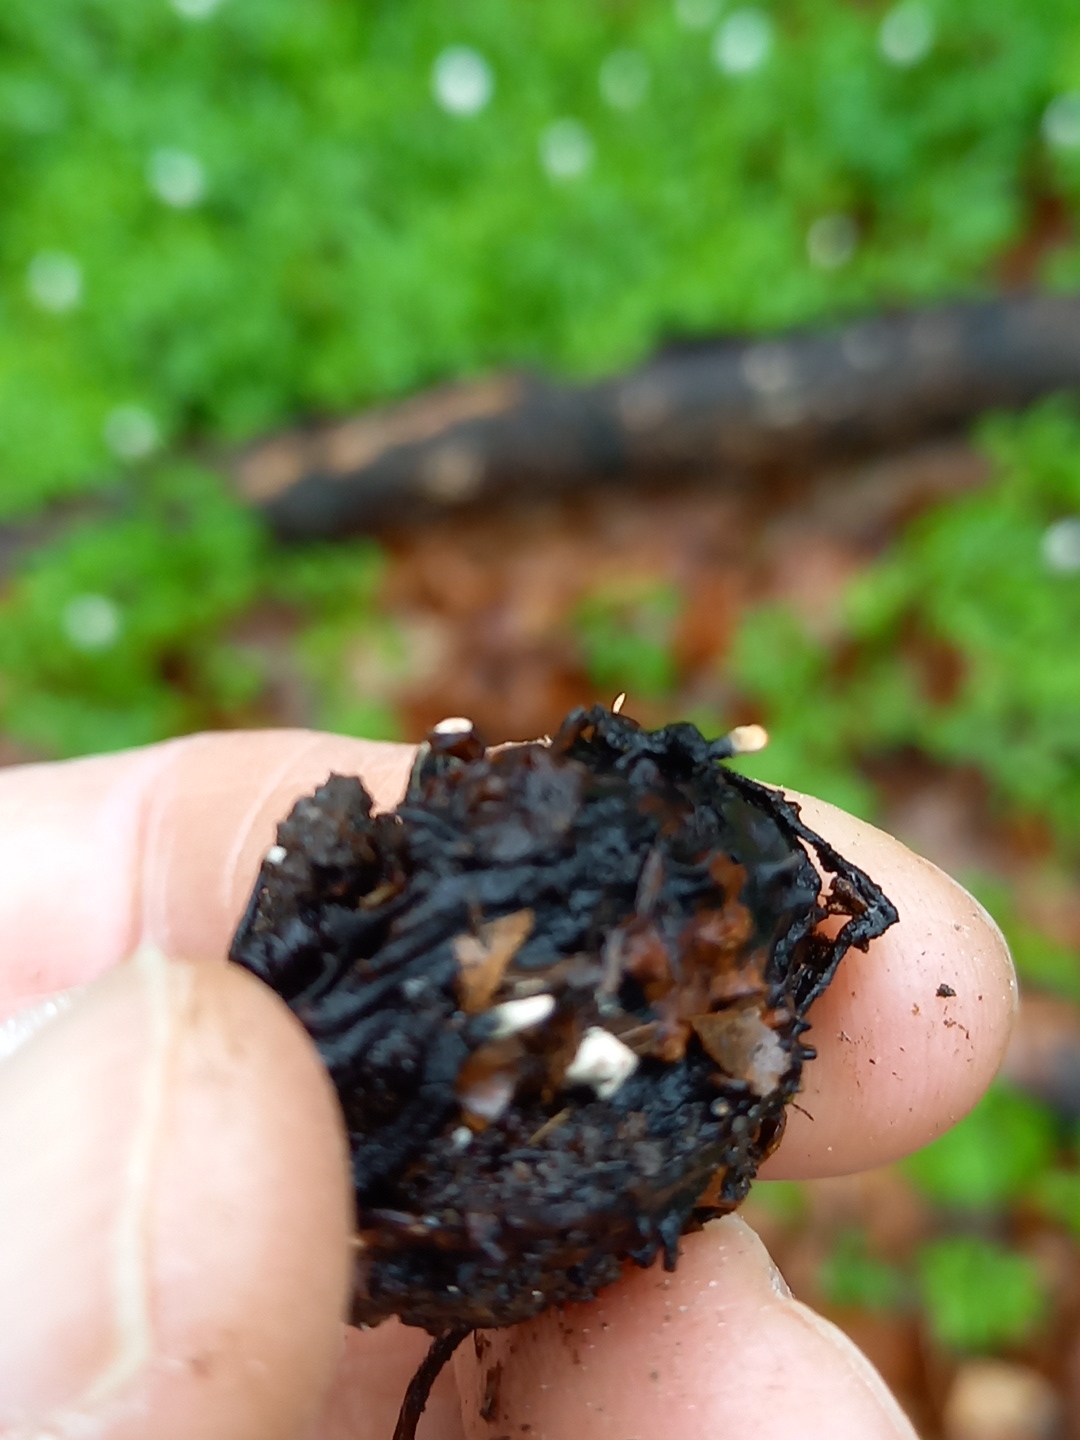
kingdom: Fungi
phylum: Ascomycota
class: Sordariomycetes
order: Xylariales
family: Xylariaceae
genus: Xylaria
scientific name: Xylaria carpophila
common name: bogskål-stødsvamp
